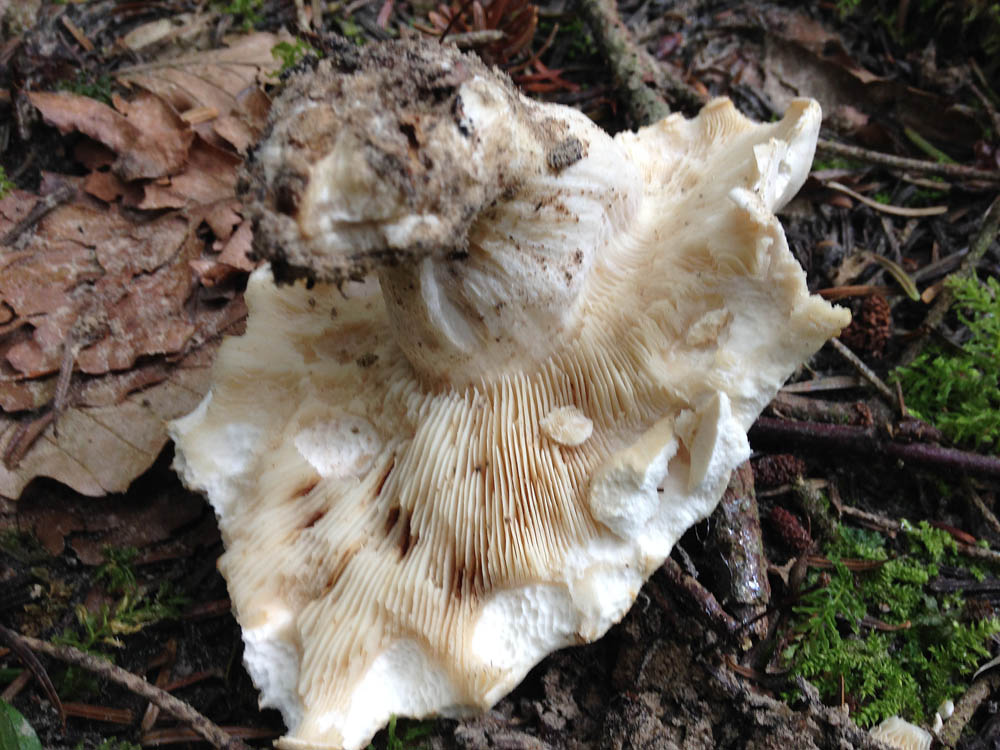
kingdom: Fungi
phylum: Basidiomycota
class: Agaricomycetes
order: Agaricales
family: Lyophyllaceae
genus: Calocybe
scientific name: Calocybe gambosa
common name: vårmusseron
